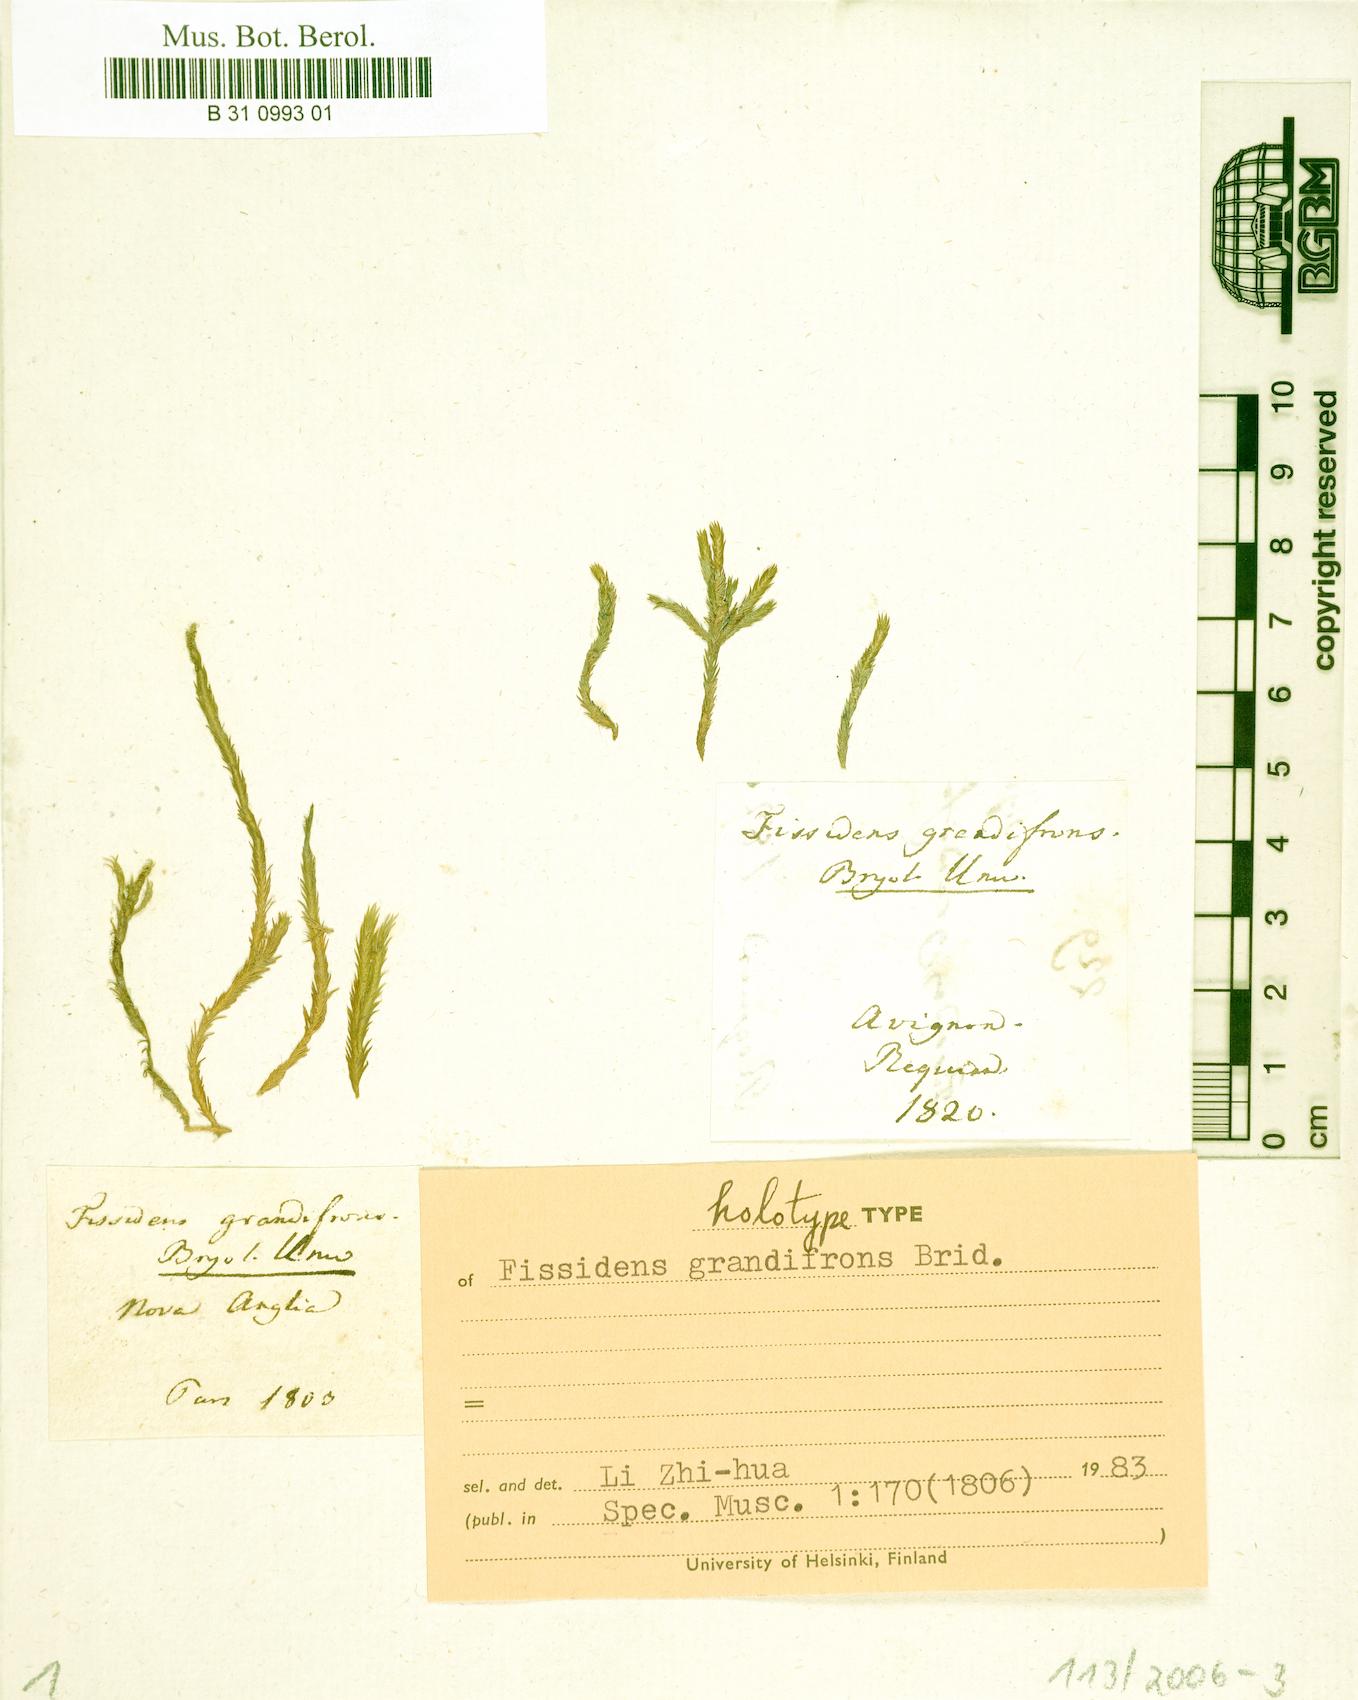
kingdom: Plantae
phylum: Bryophyta
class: Bryopsida
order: Dicranales
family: Fissidentaceae
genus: Fissidens
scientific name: Fissidens grandifrons
